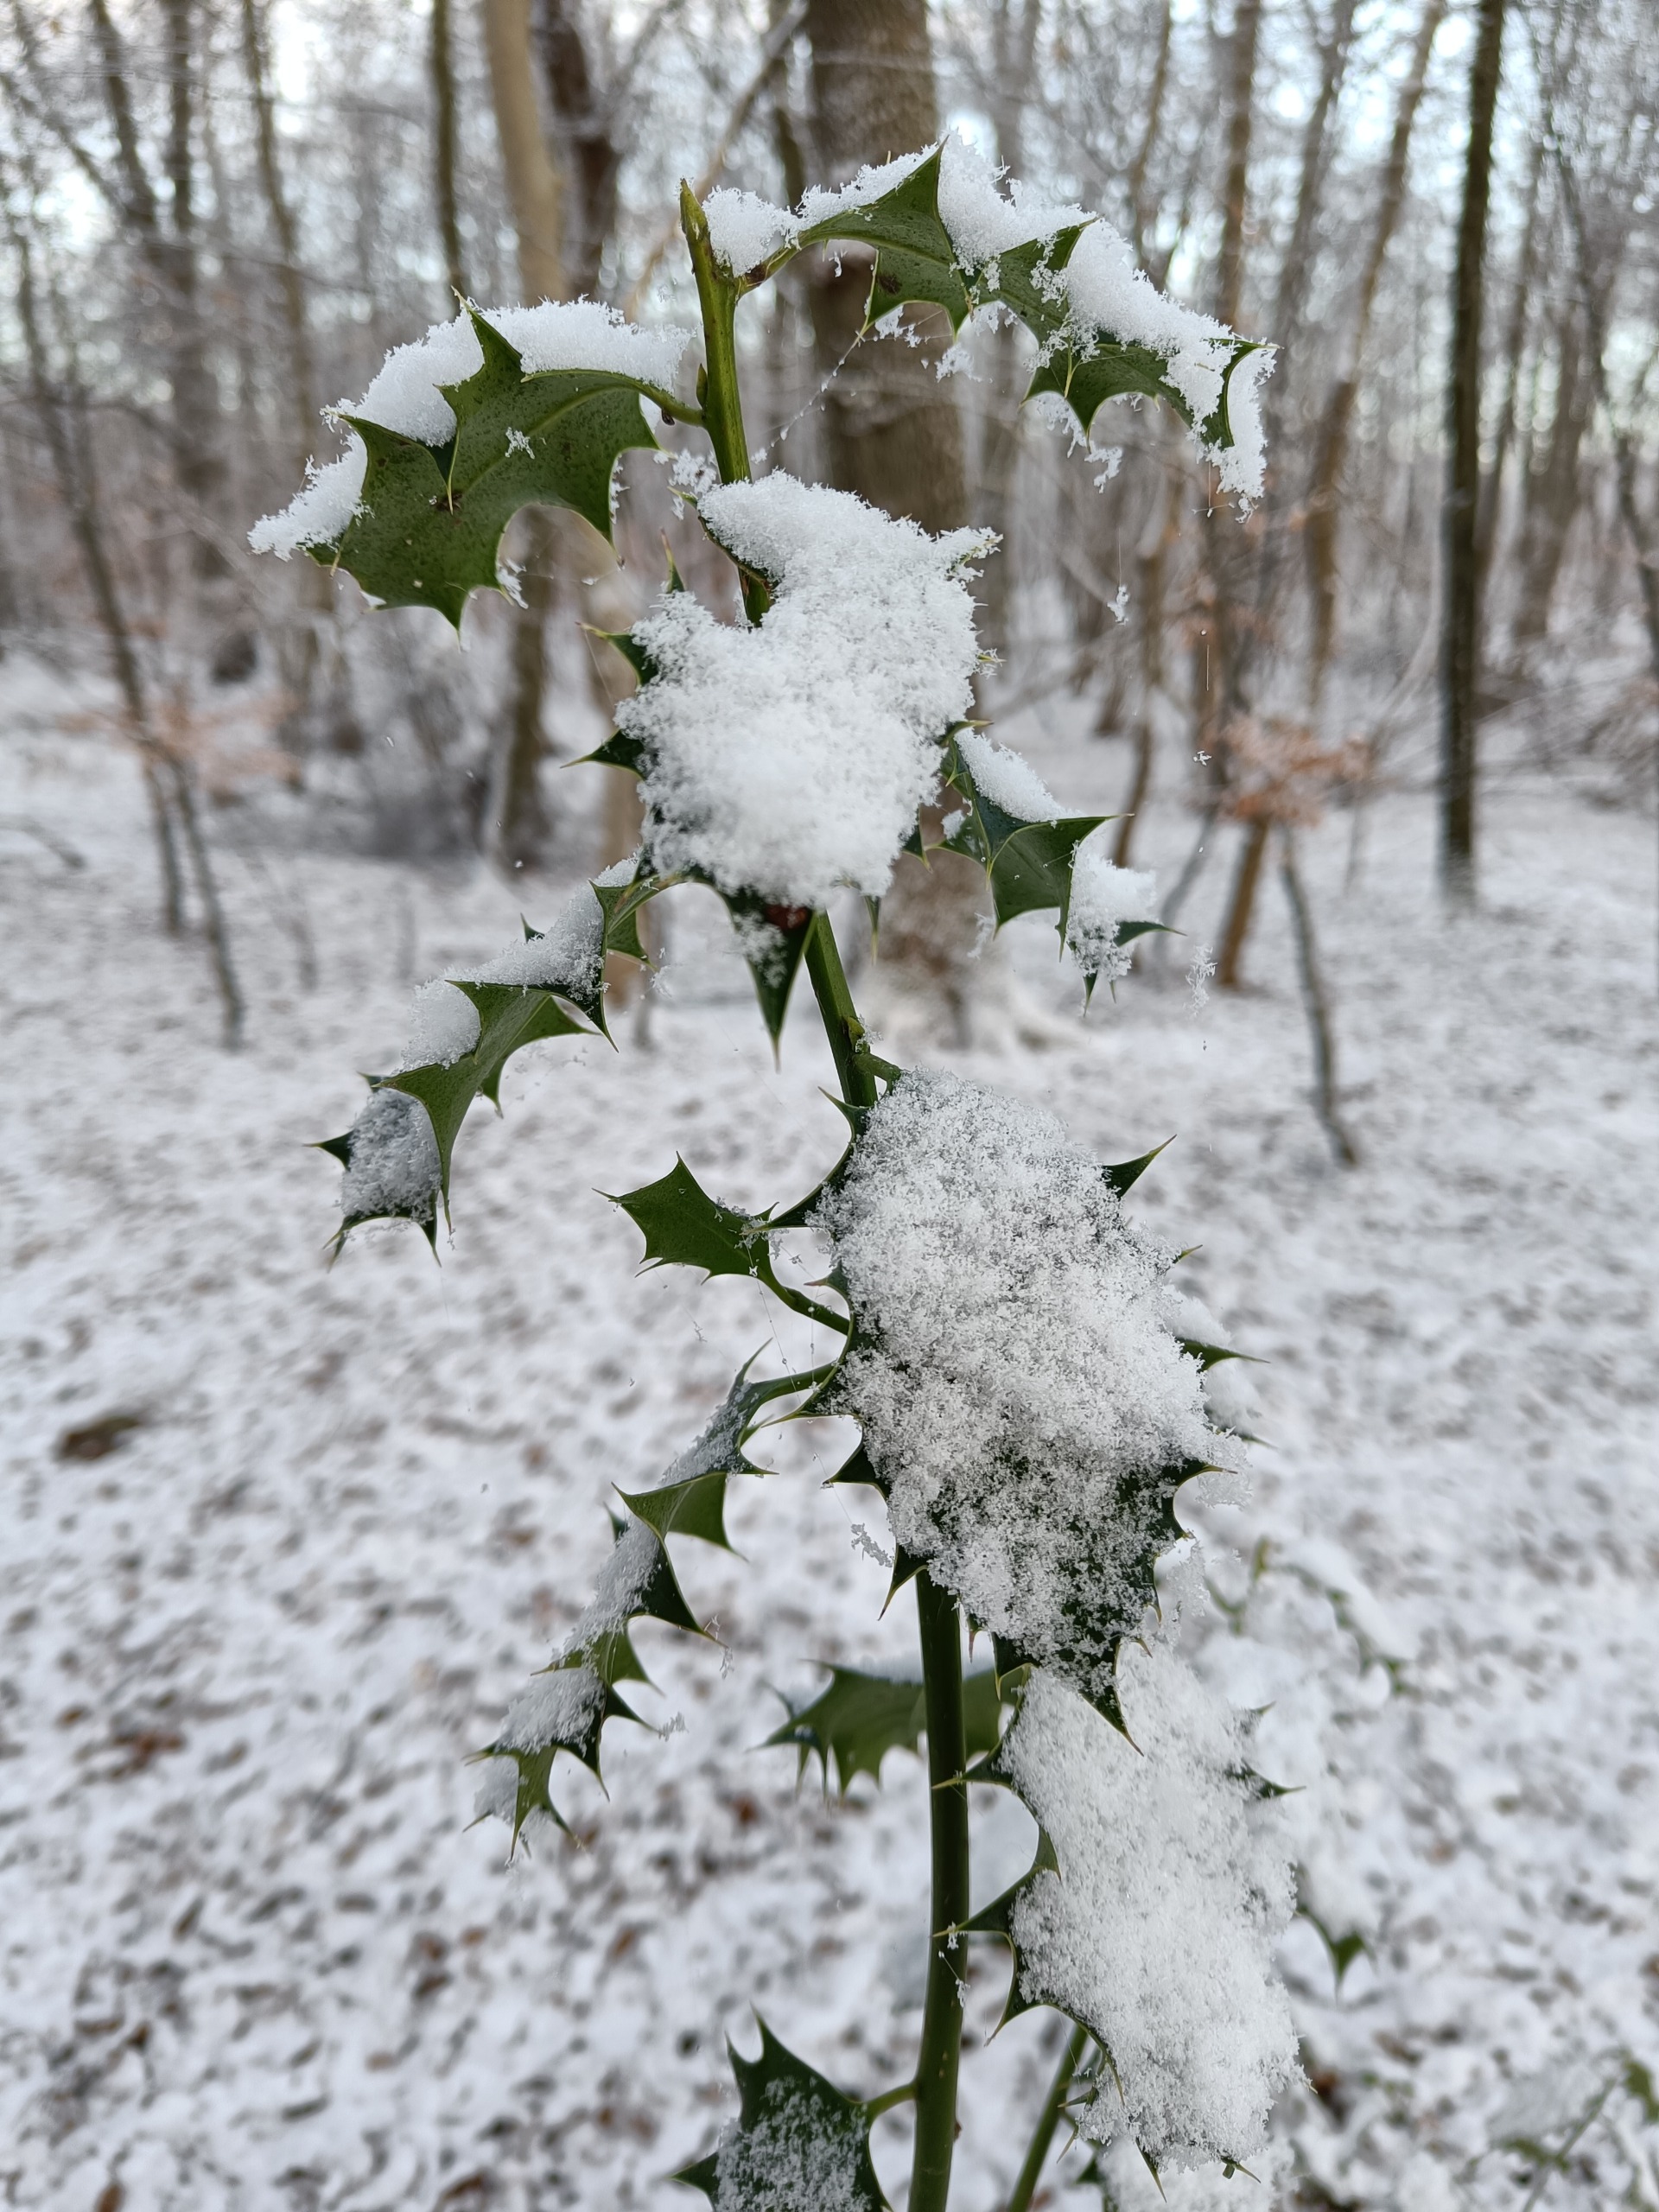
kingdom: Plantae
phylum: Tracheophyta
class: Magnoliopsida
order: Aquifoliales
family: Aquifoliaceae
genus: Ilex
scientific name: Ilex aquifolium
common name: Kristtorn
